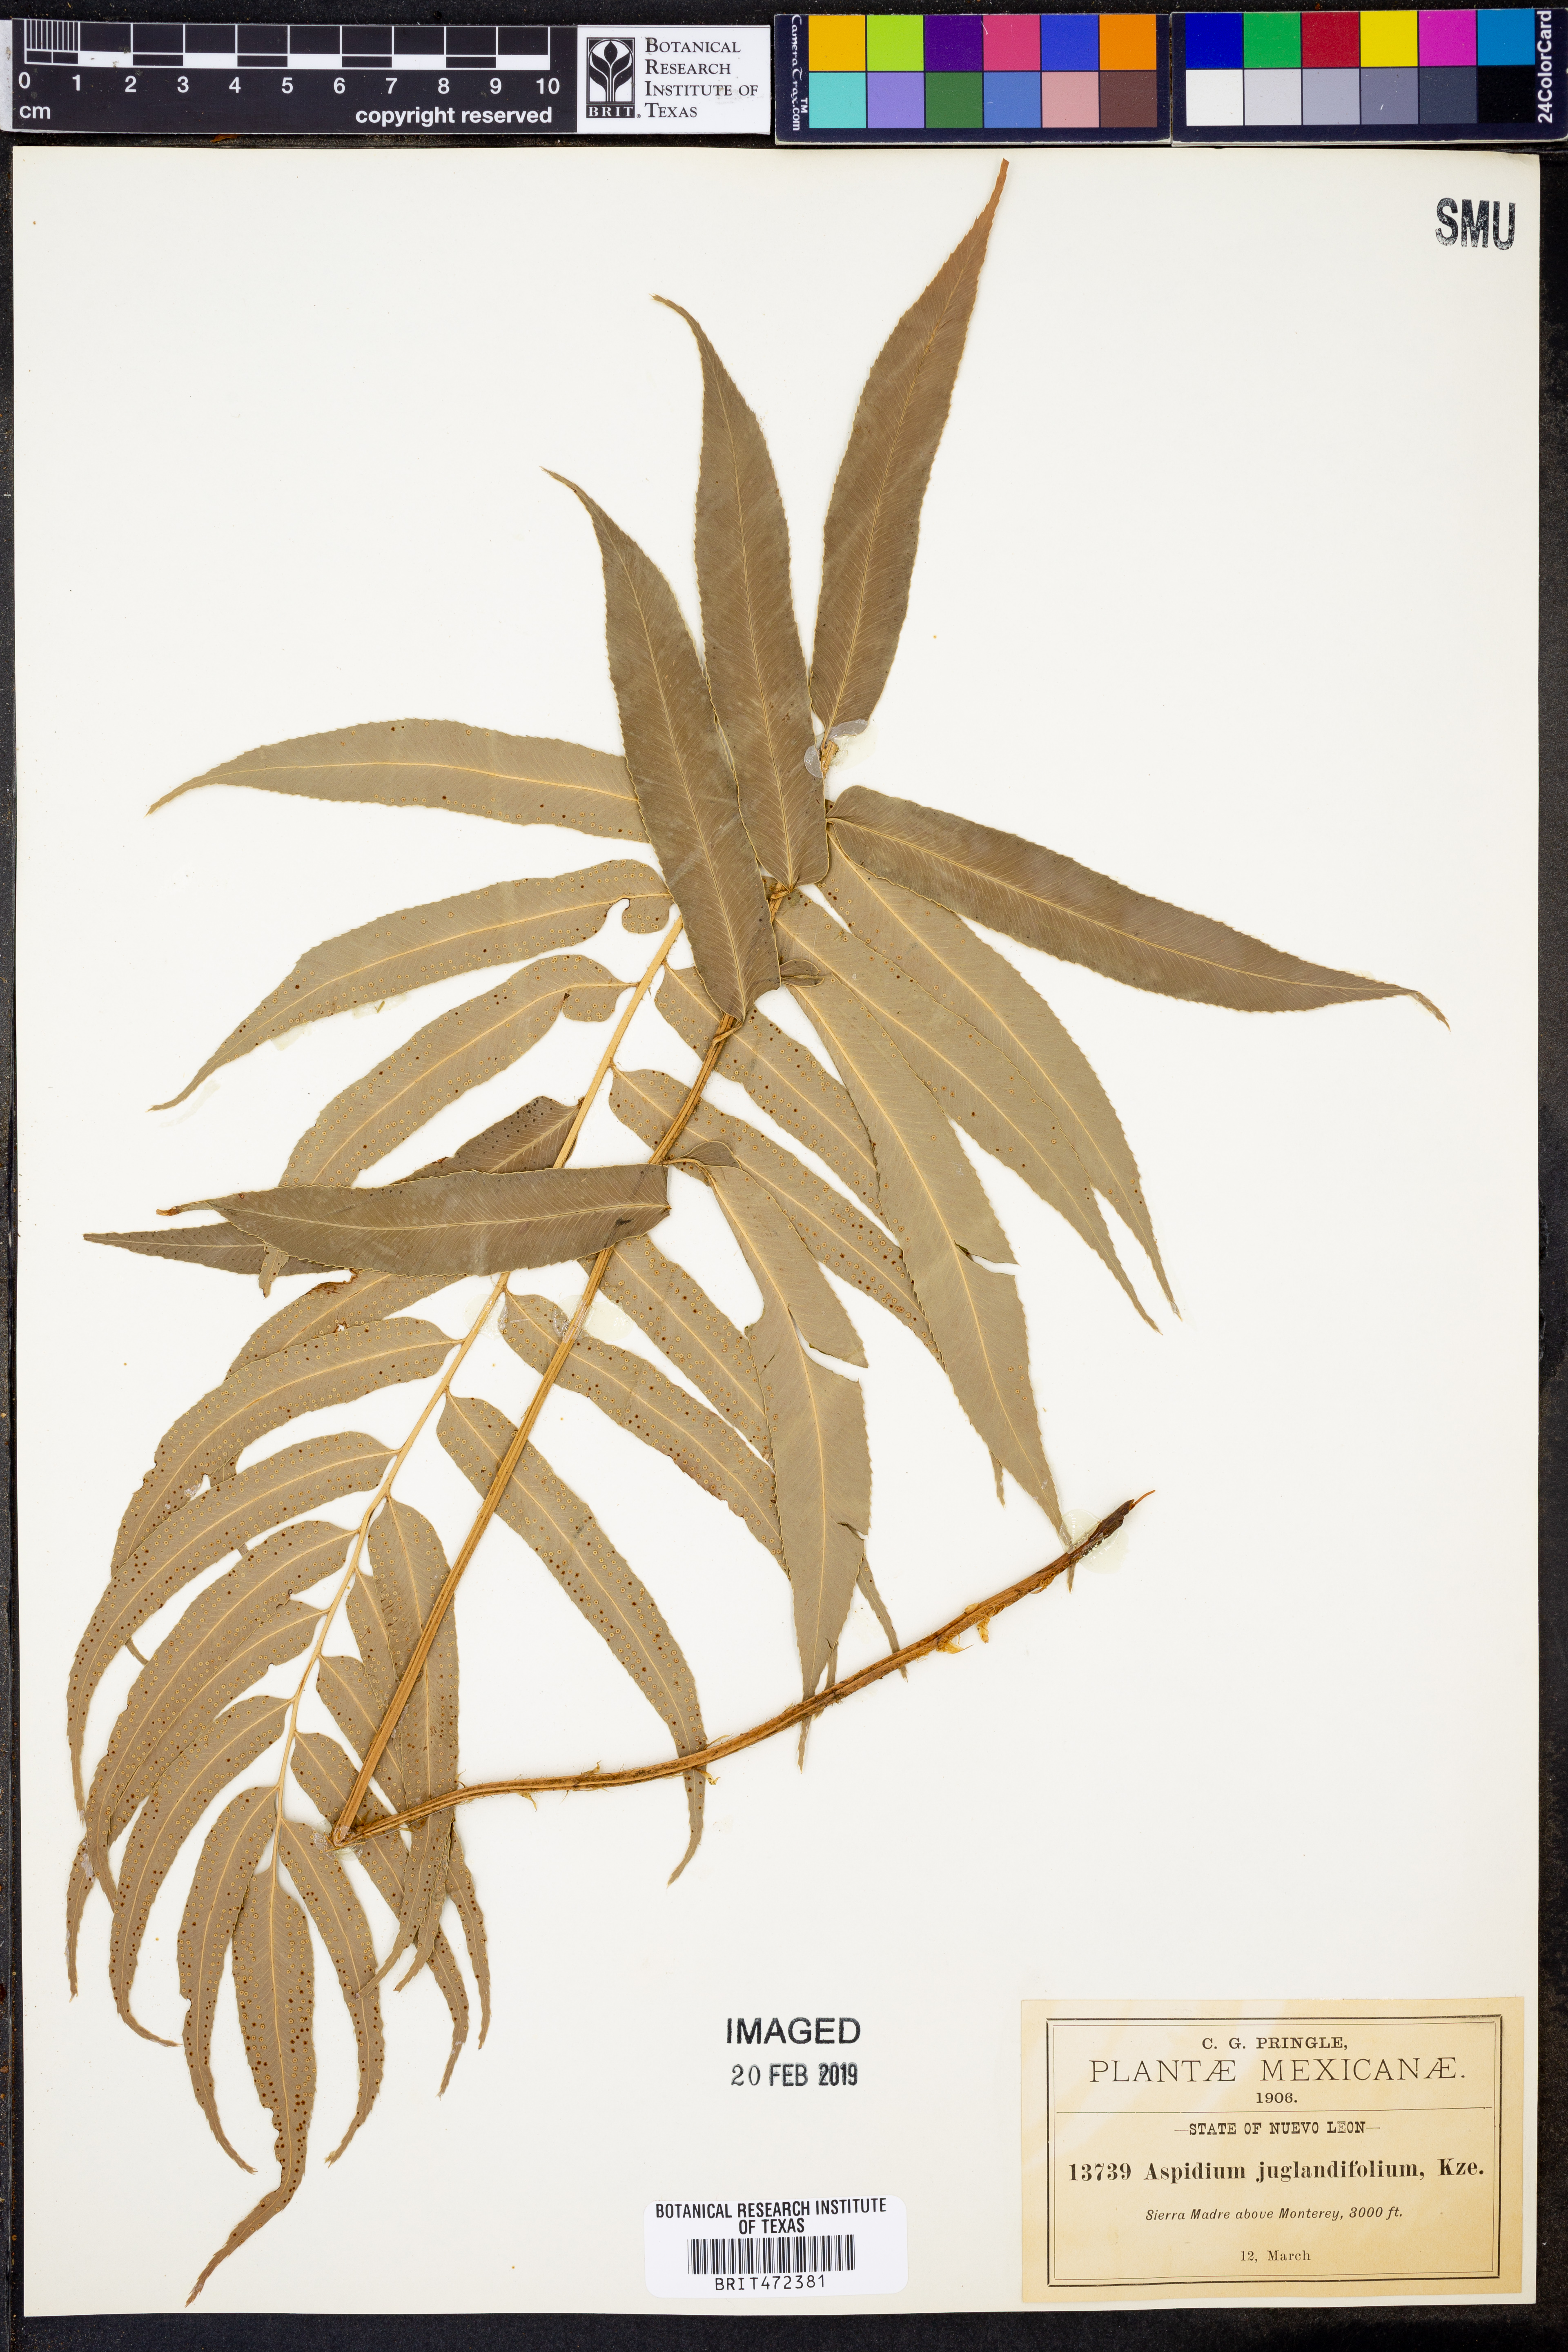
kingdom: Plantae
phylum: Tracheophyta
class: Polypodiopsida
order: Polypodiales
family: Dryopteridaceae
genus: Phanerophlebia
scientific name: Phanerophlebia umbonata
